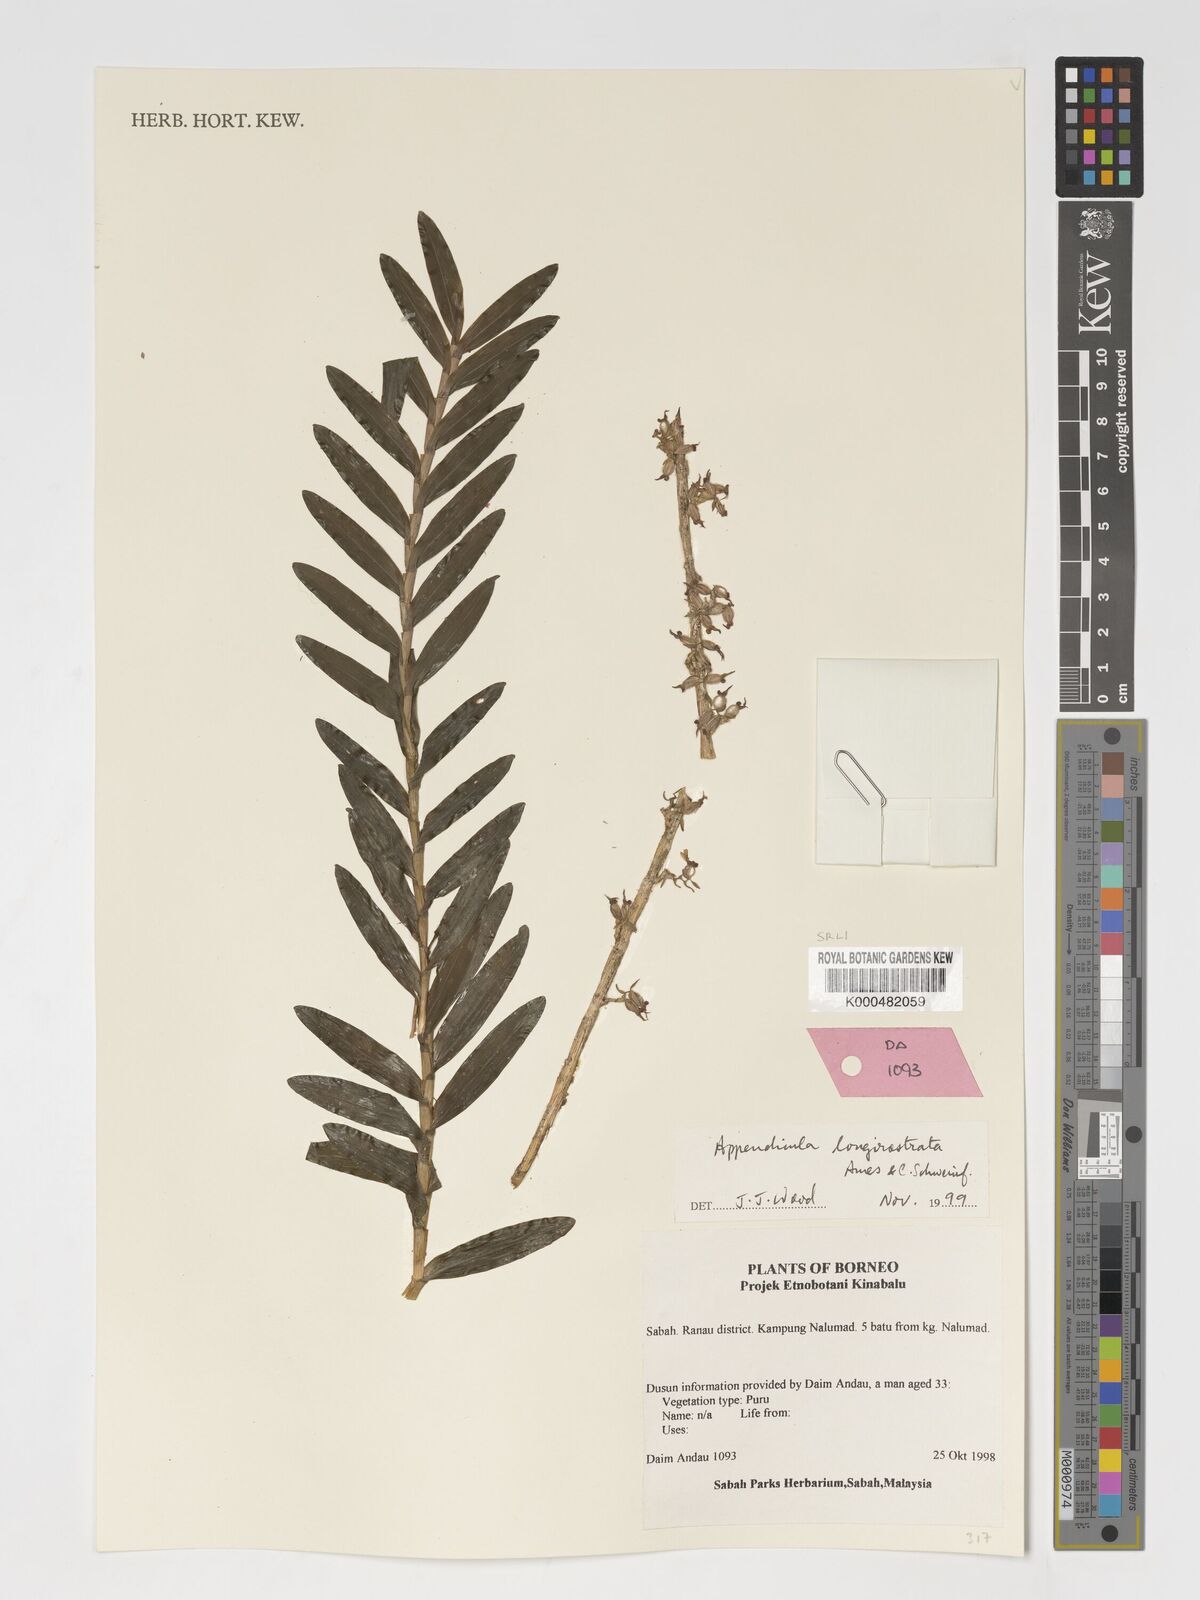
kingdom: Plantae
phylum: Tracheophyta
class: Liliopsida
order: Asparagales
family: Orchidaceae
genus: Appendicula
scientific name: Appendicula longirostrata
